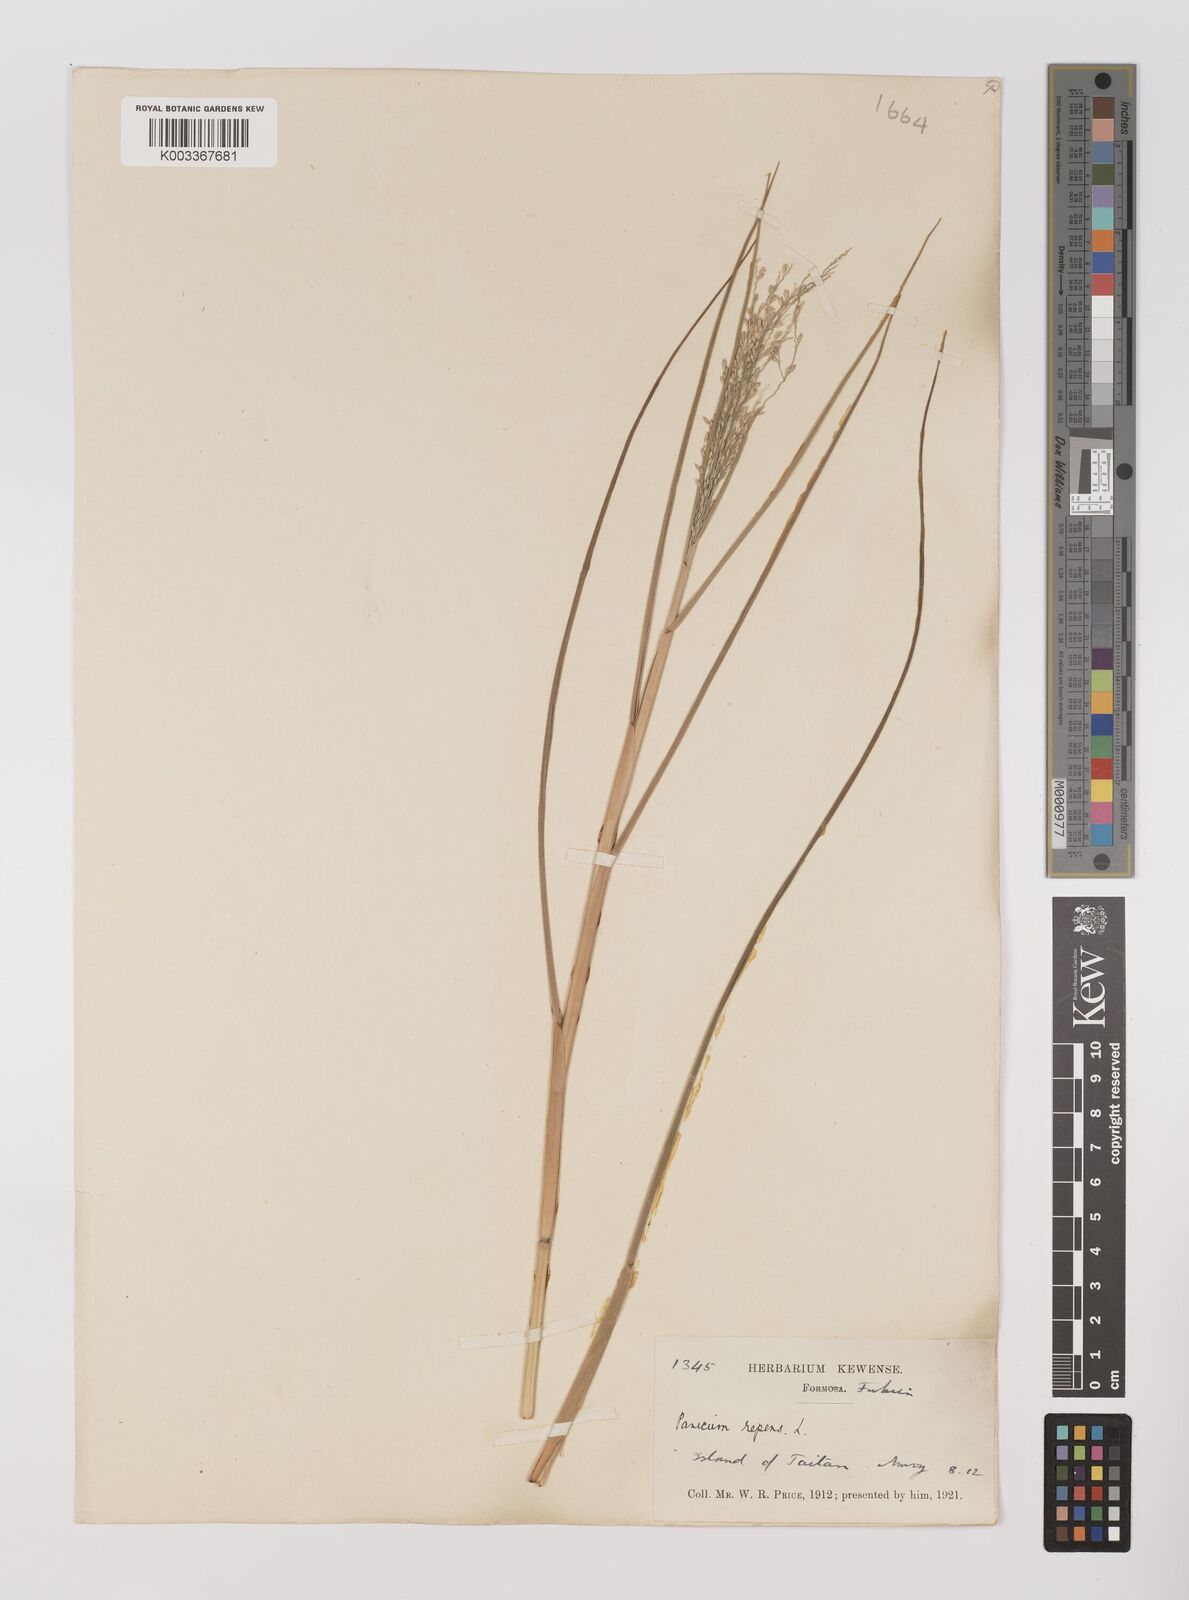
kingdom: Plantae
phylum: Tracheophyta
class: Liliopsida
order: Poales
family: Poaceae
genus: Panicum
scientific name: Panicum repens
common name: Torpedo grass
